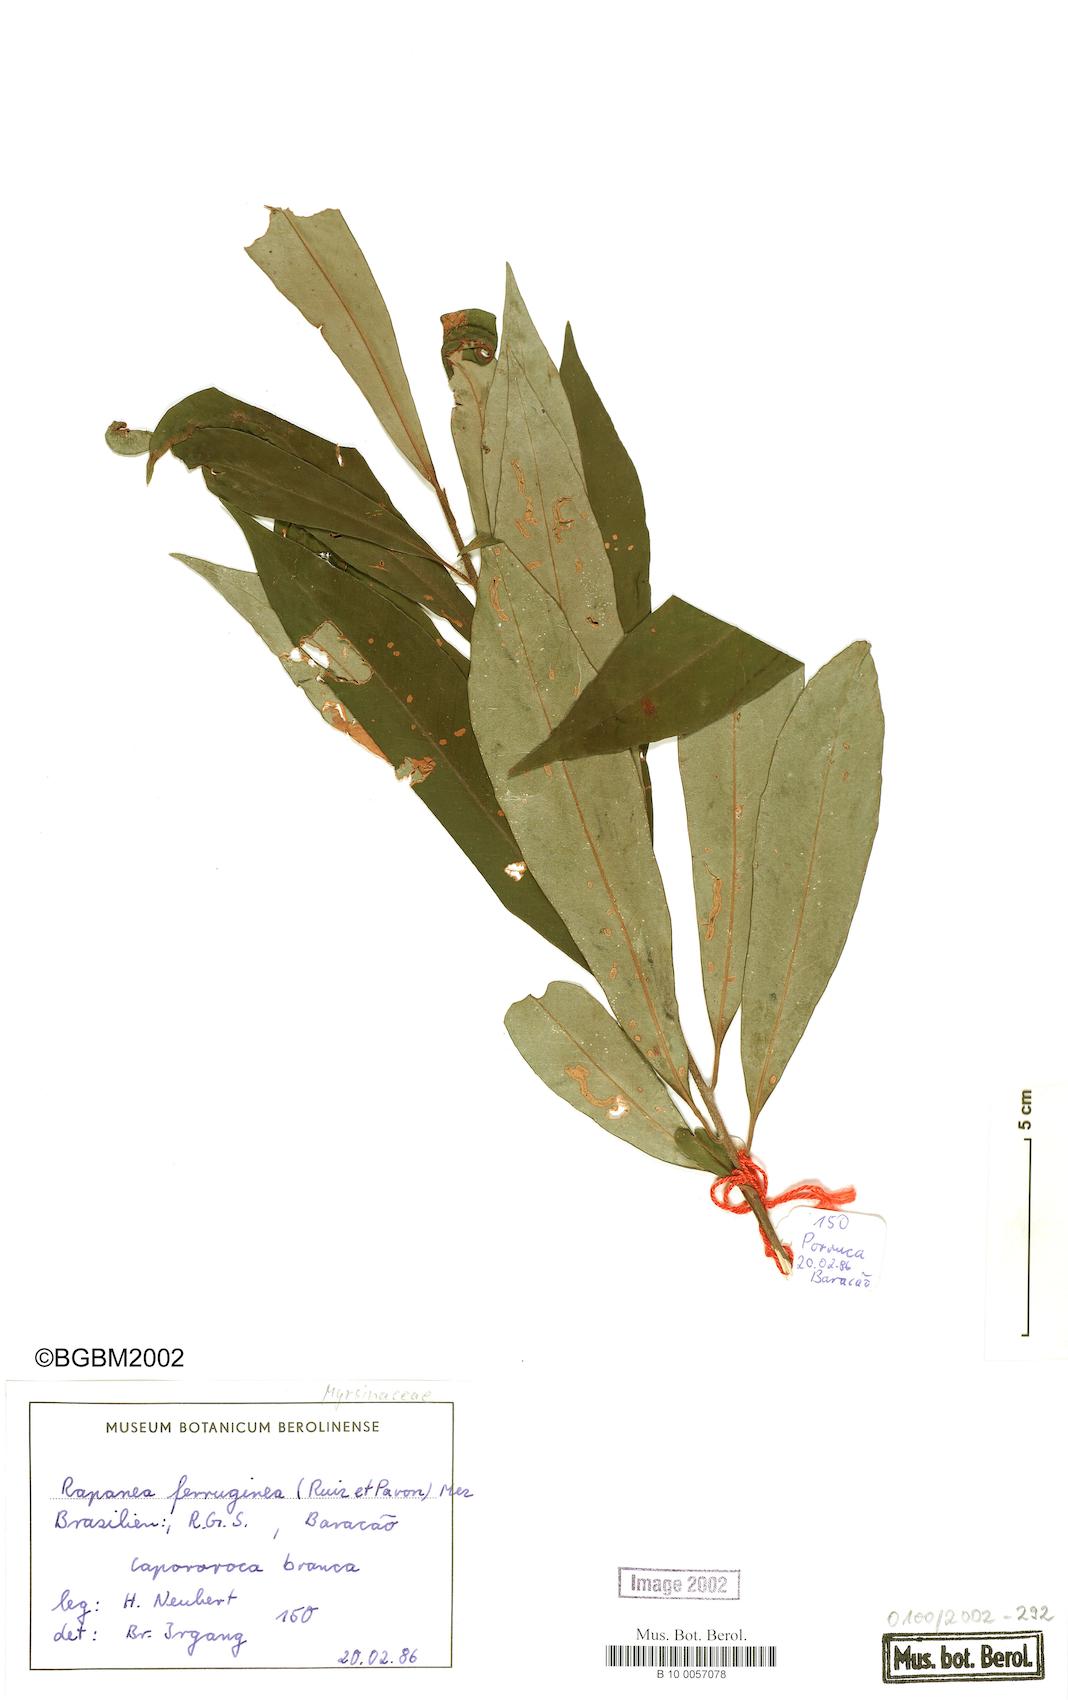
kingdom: Plantae
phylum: Tracheophyta
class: Magnoliopsida
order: Ericales
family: Primulaceae
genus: Myrsine
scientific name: Myrsine coriacea
